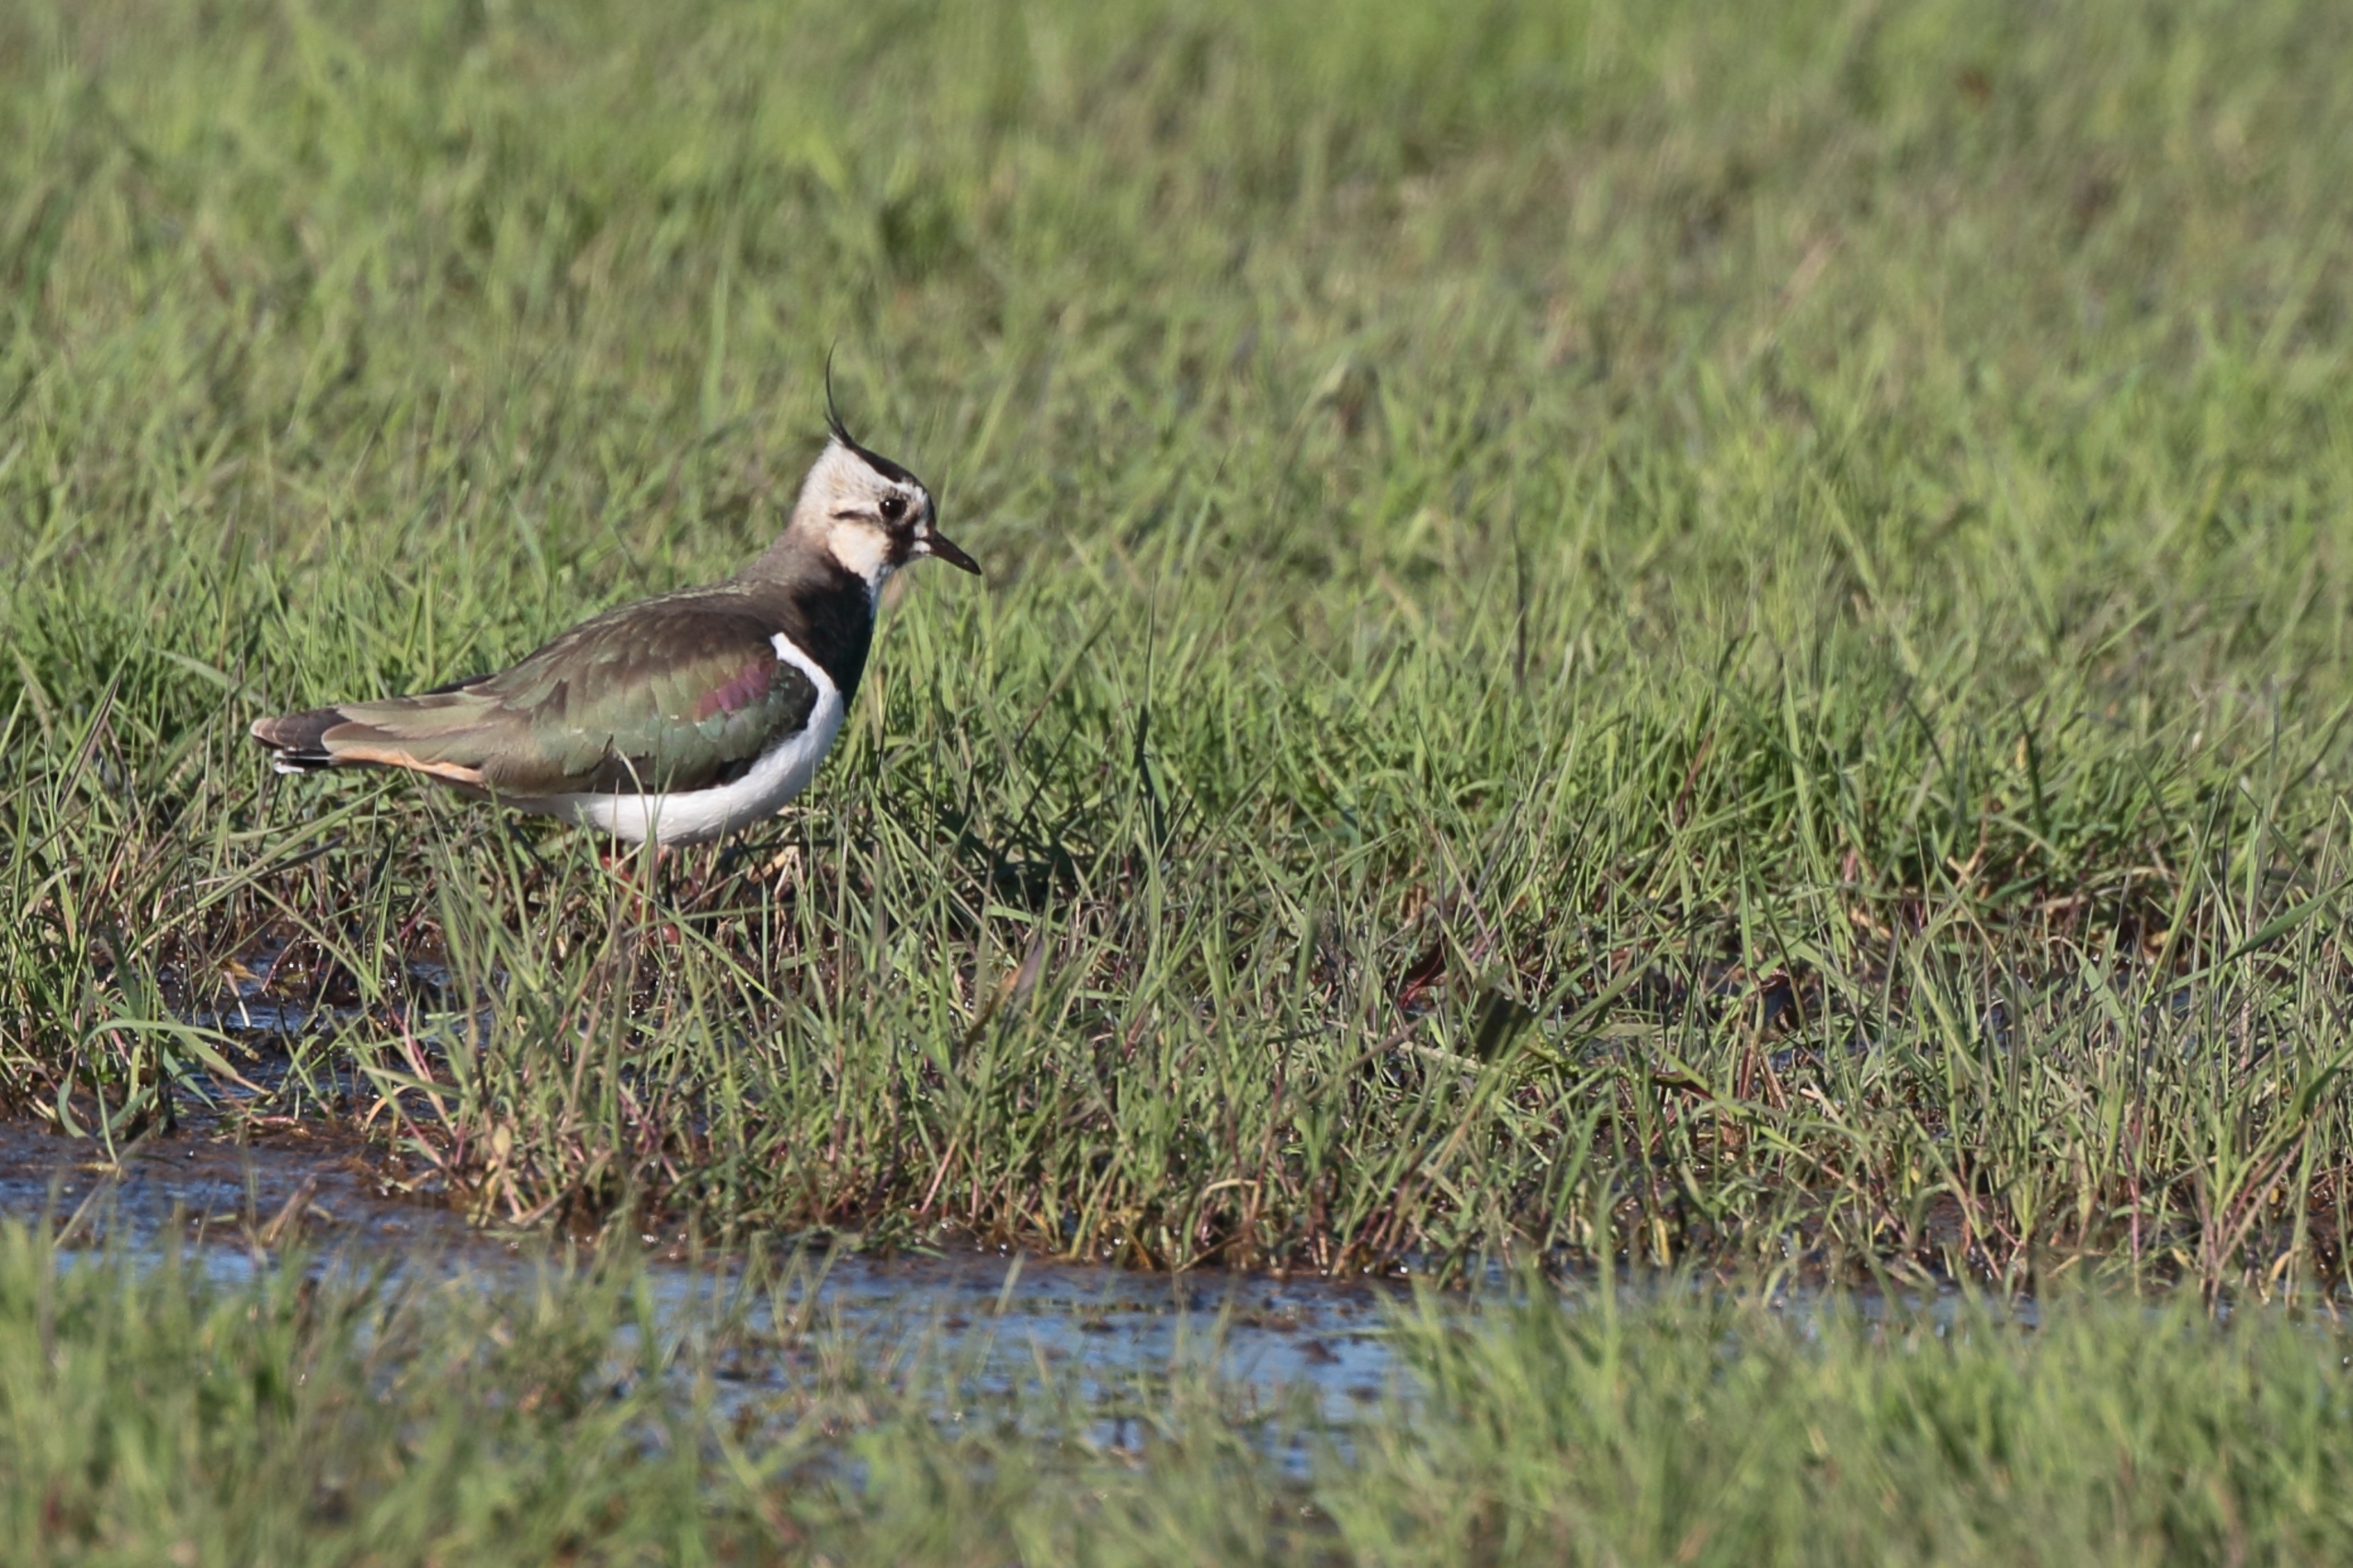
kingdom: Animalia
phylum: Chordata
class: Aves
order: Charadriiformes
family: Charadriidae
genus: Vanellus
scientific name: Vanellus vanellus
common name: Vibe
